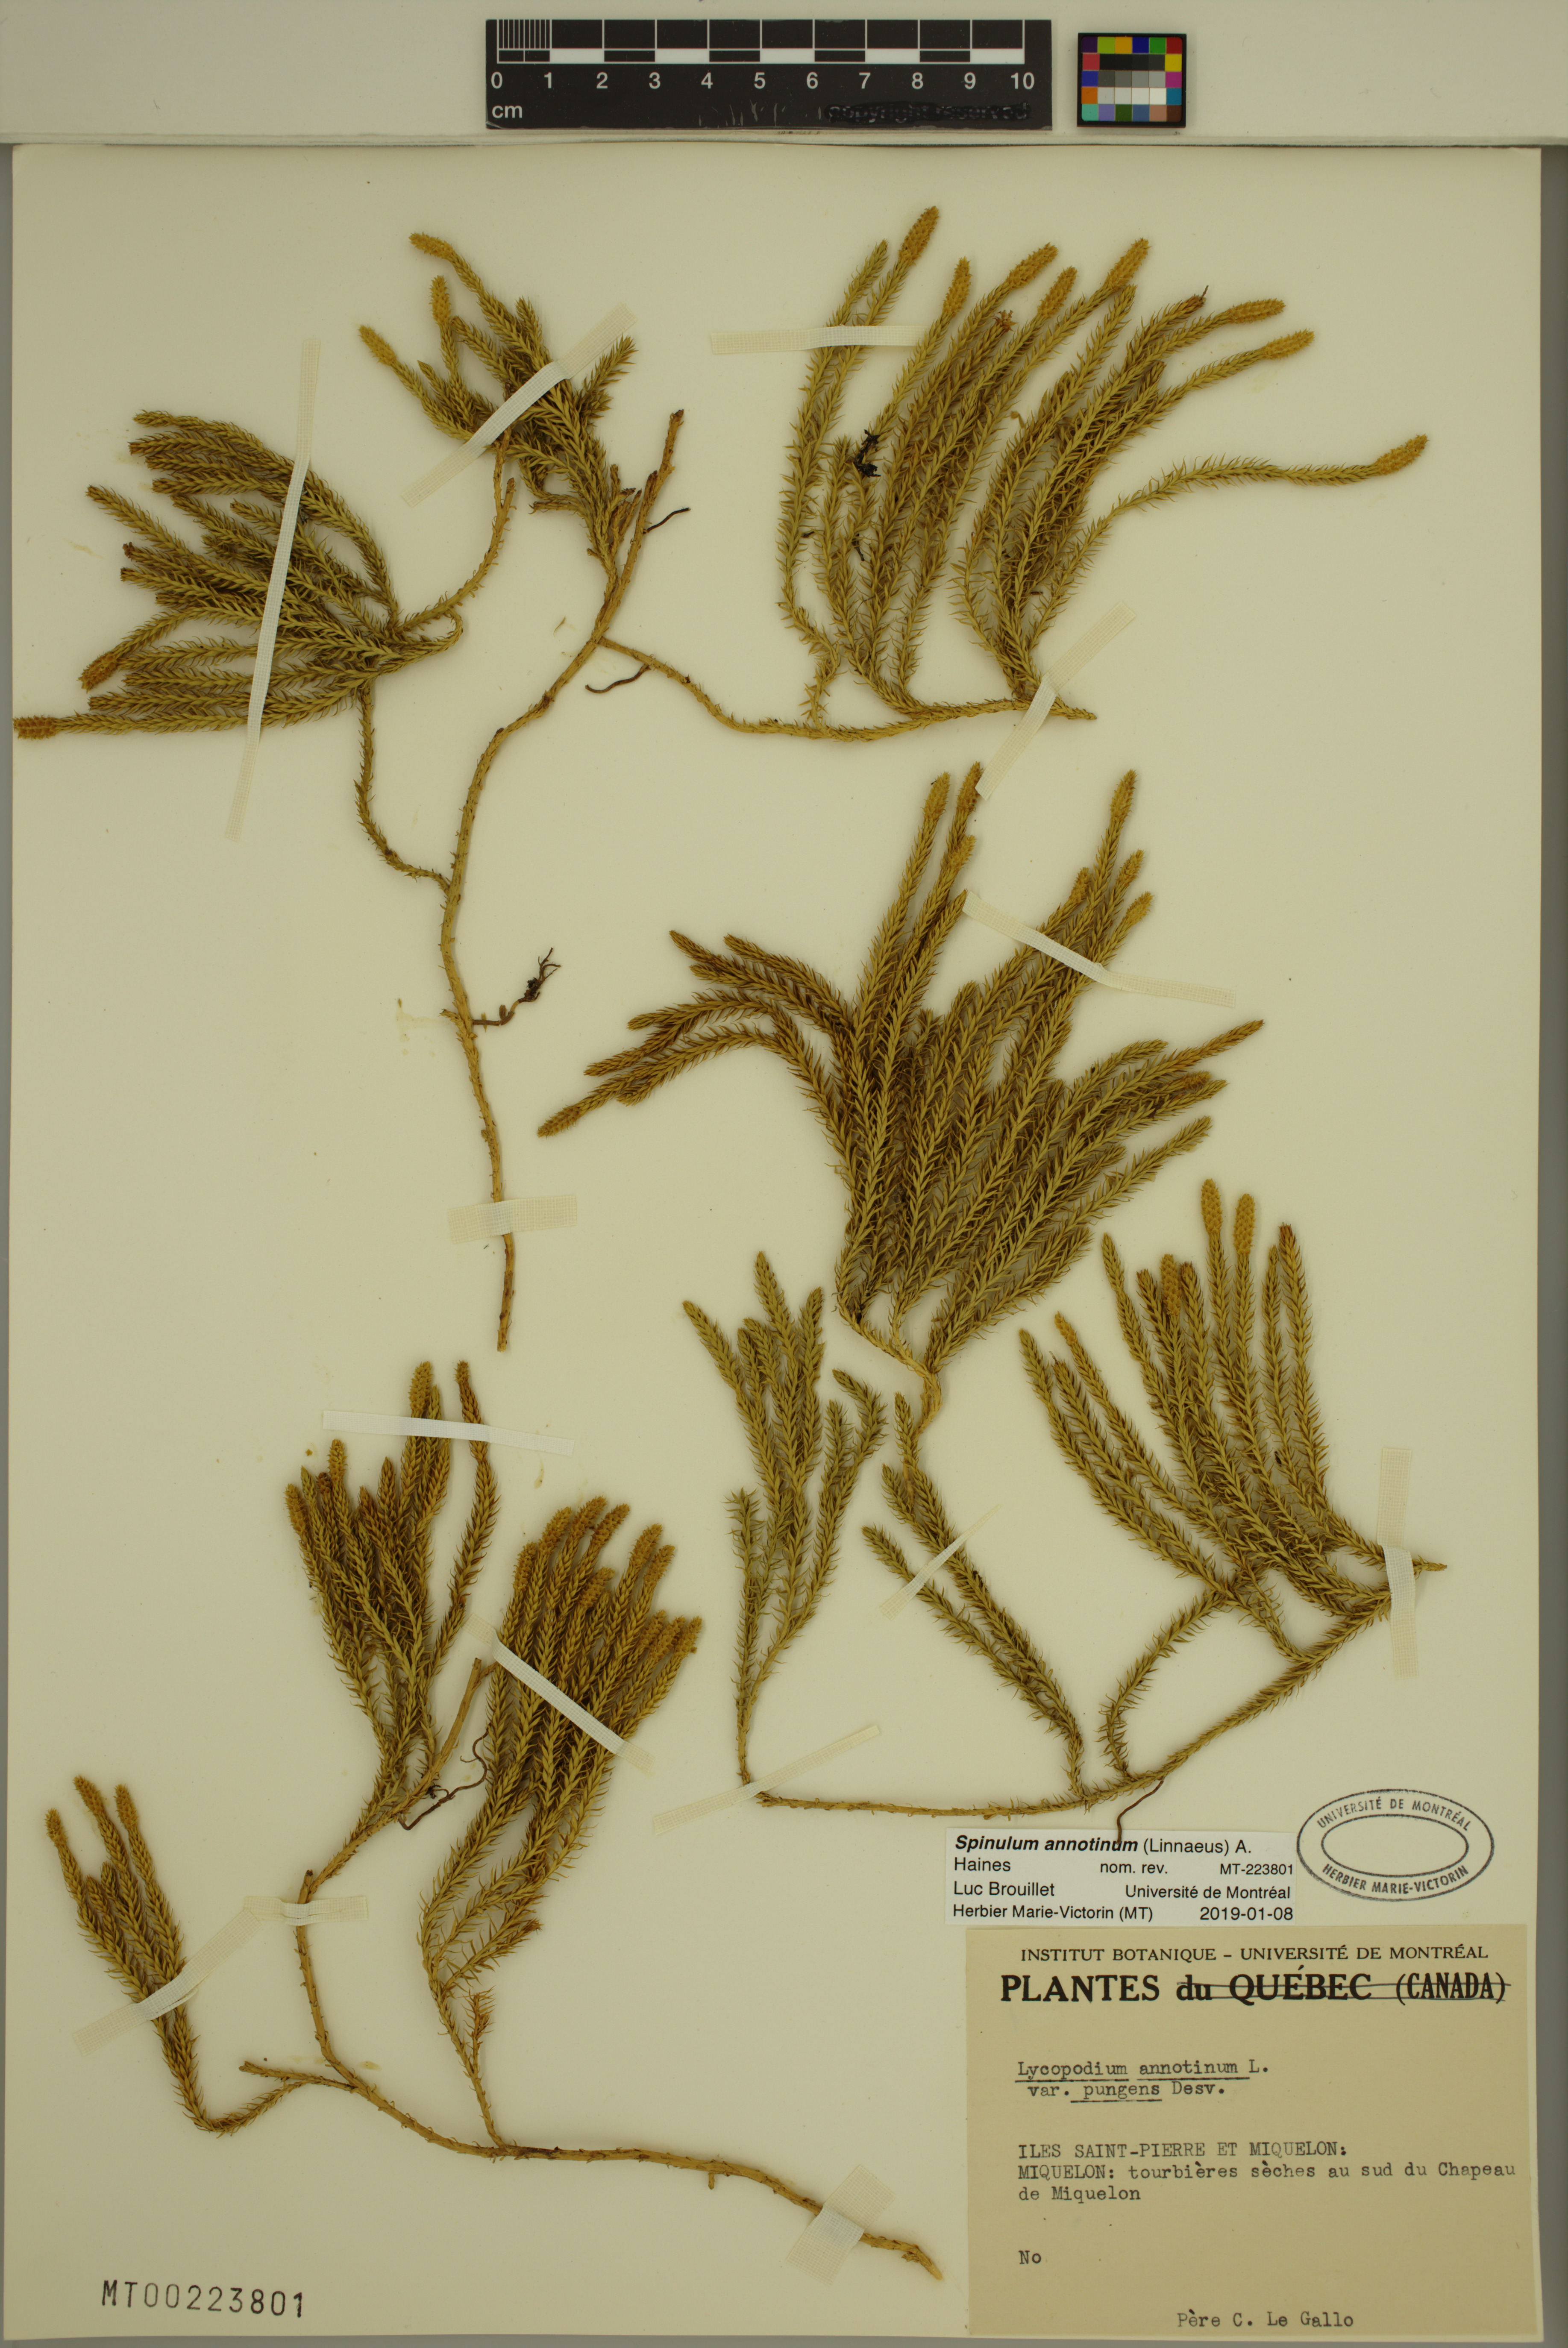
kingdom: Plantae
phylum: Tracheophyta
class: Lycopodiopsida
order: Lycopodiales
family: Lycopodiaceae
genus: Spinulum
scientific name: Spinulum annotinum
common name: Interrupted club-moss
